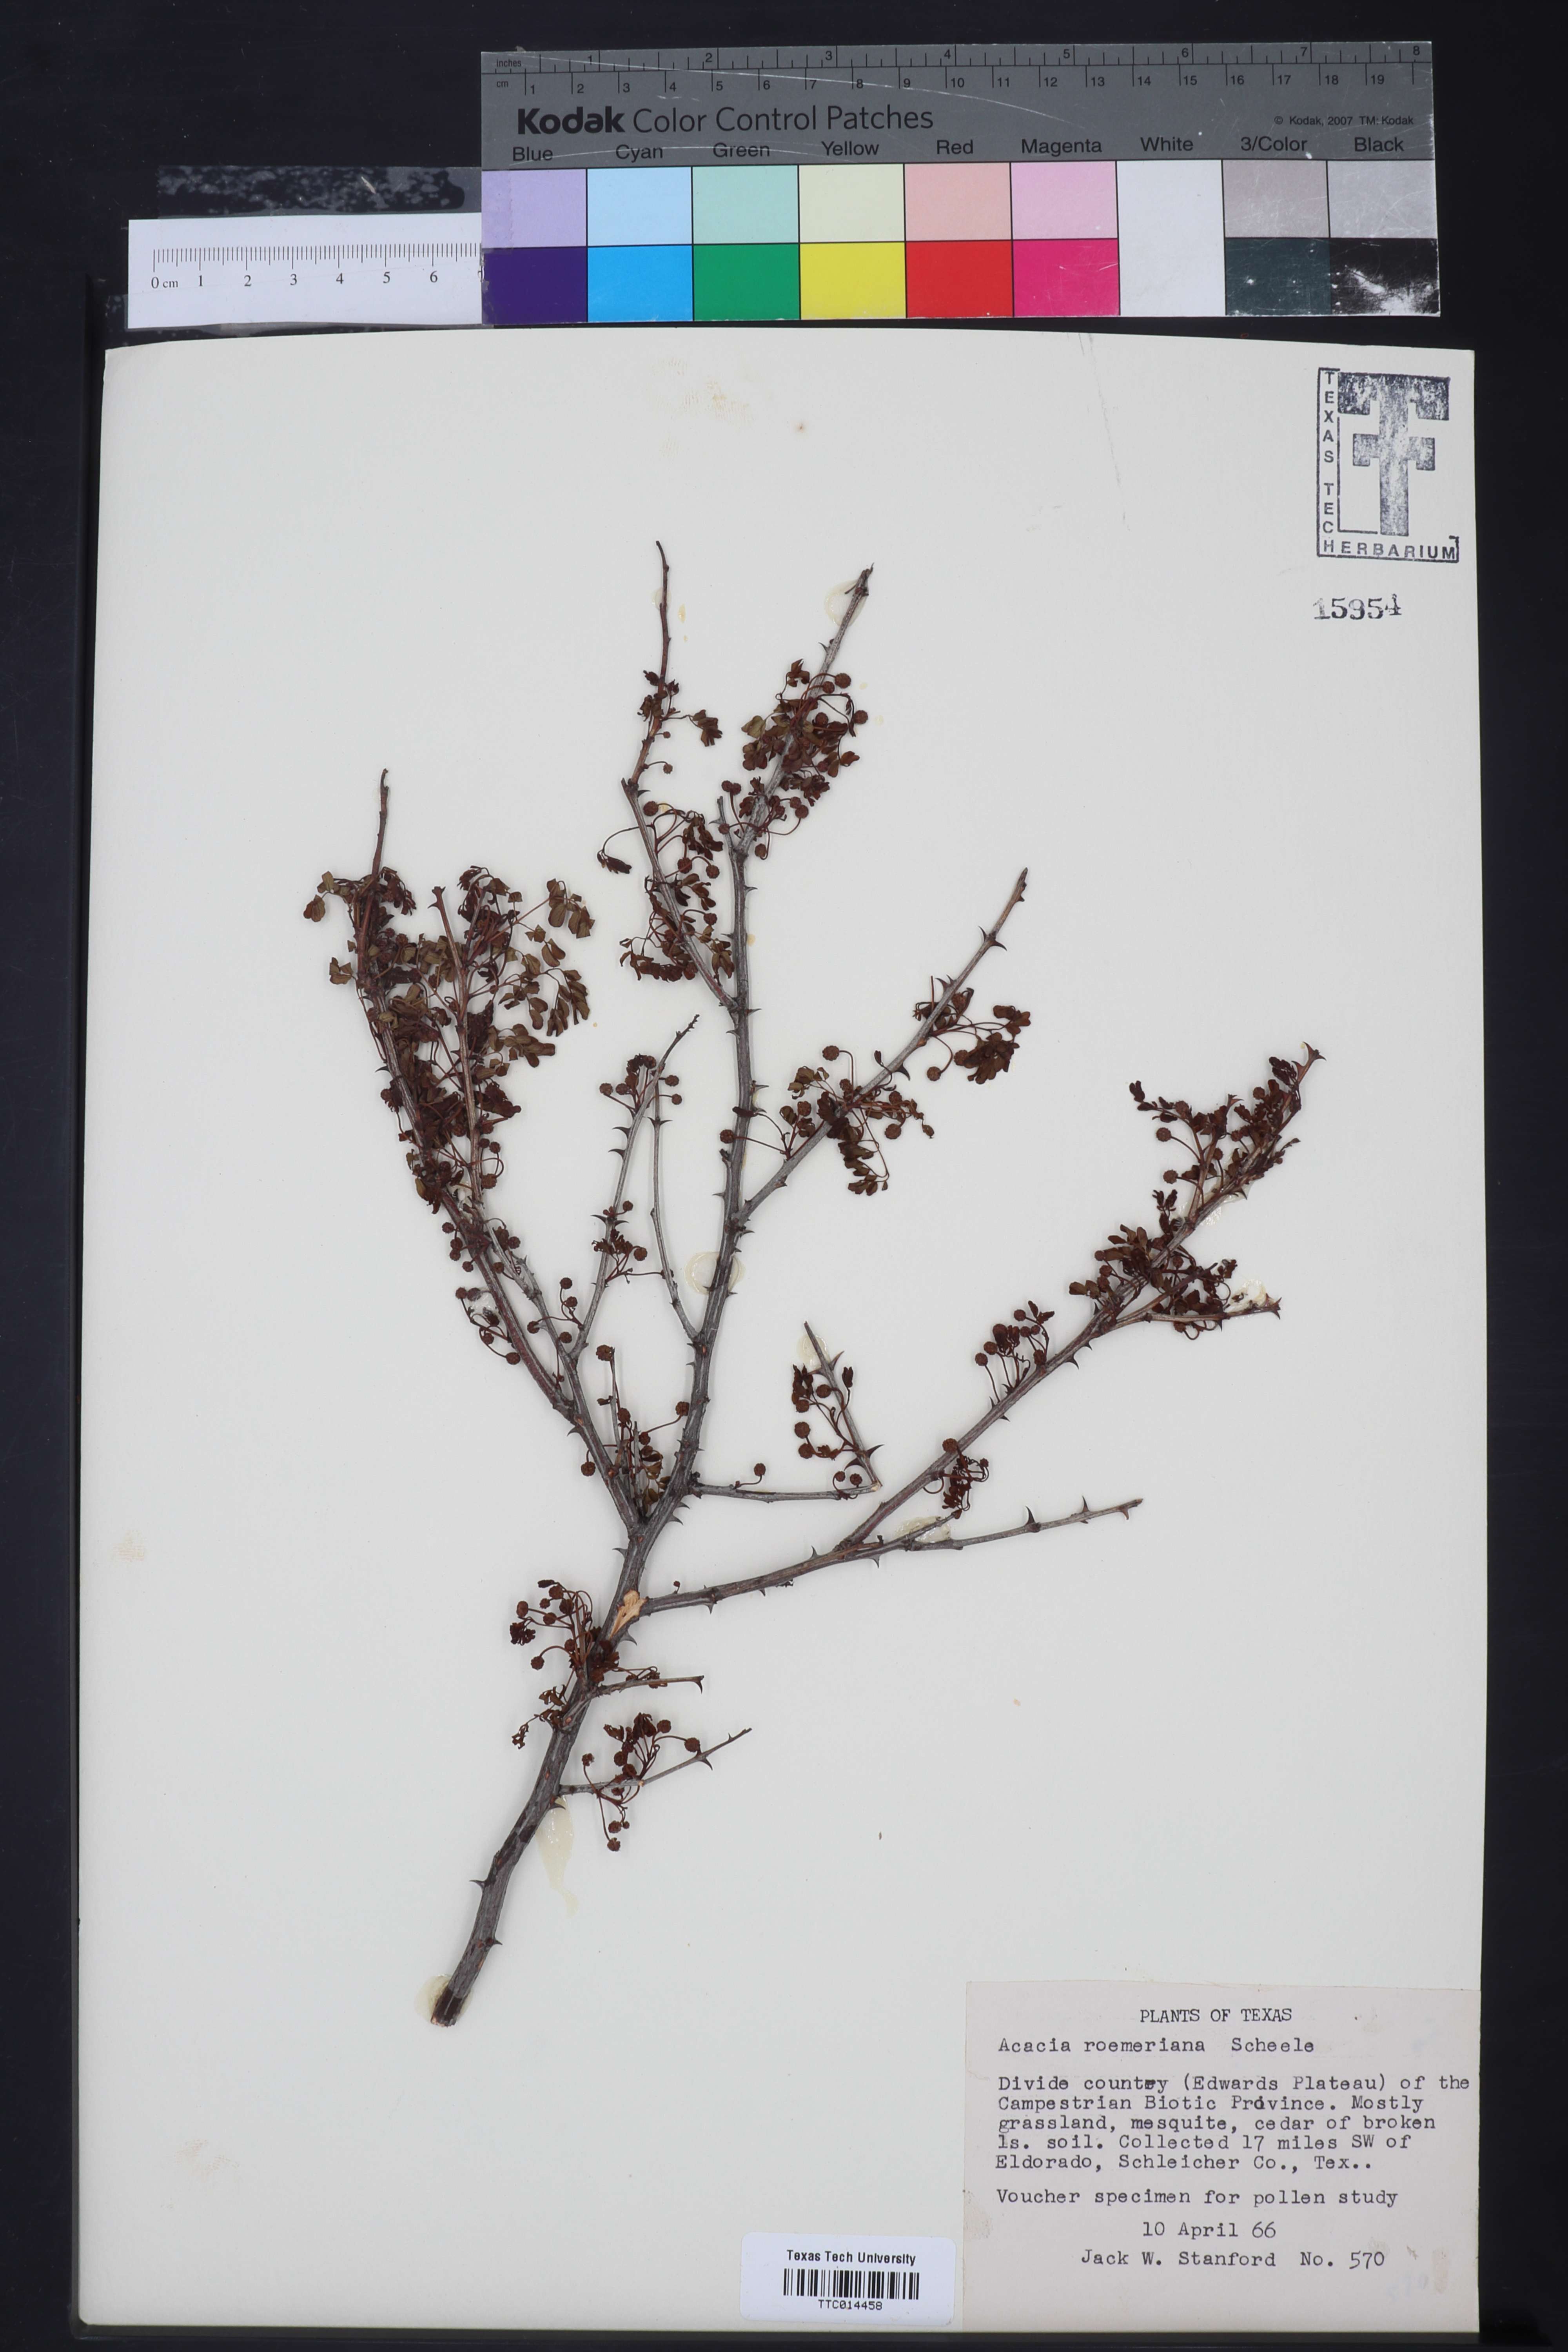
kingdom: Plantae
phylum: Tracheophyta
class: Magnoliopsida
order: Fabales
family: Fabaceae
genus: Senegalia
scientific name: Senegalia roemeriana
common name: Roemer's acacia
